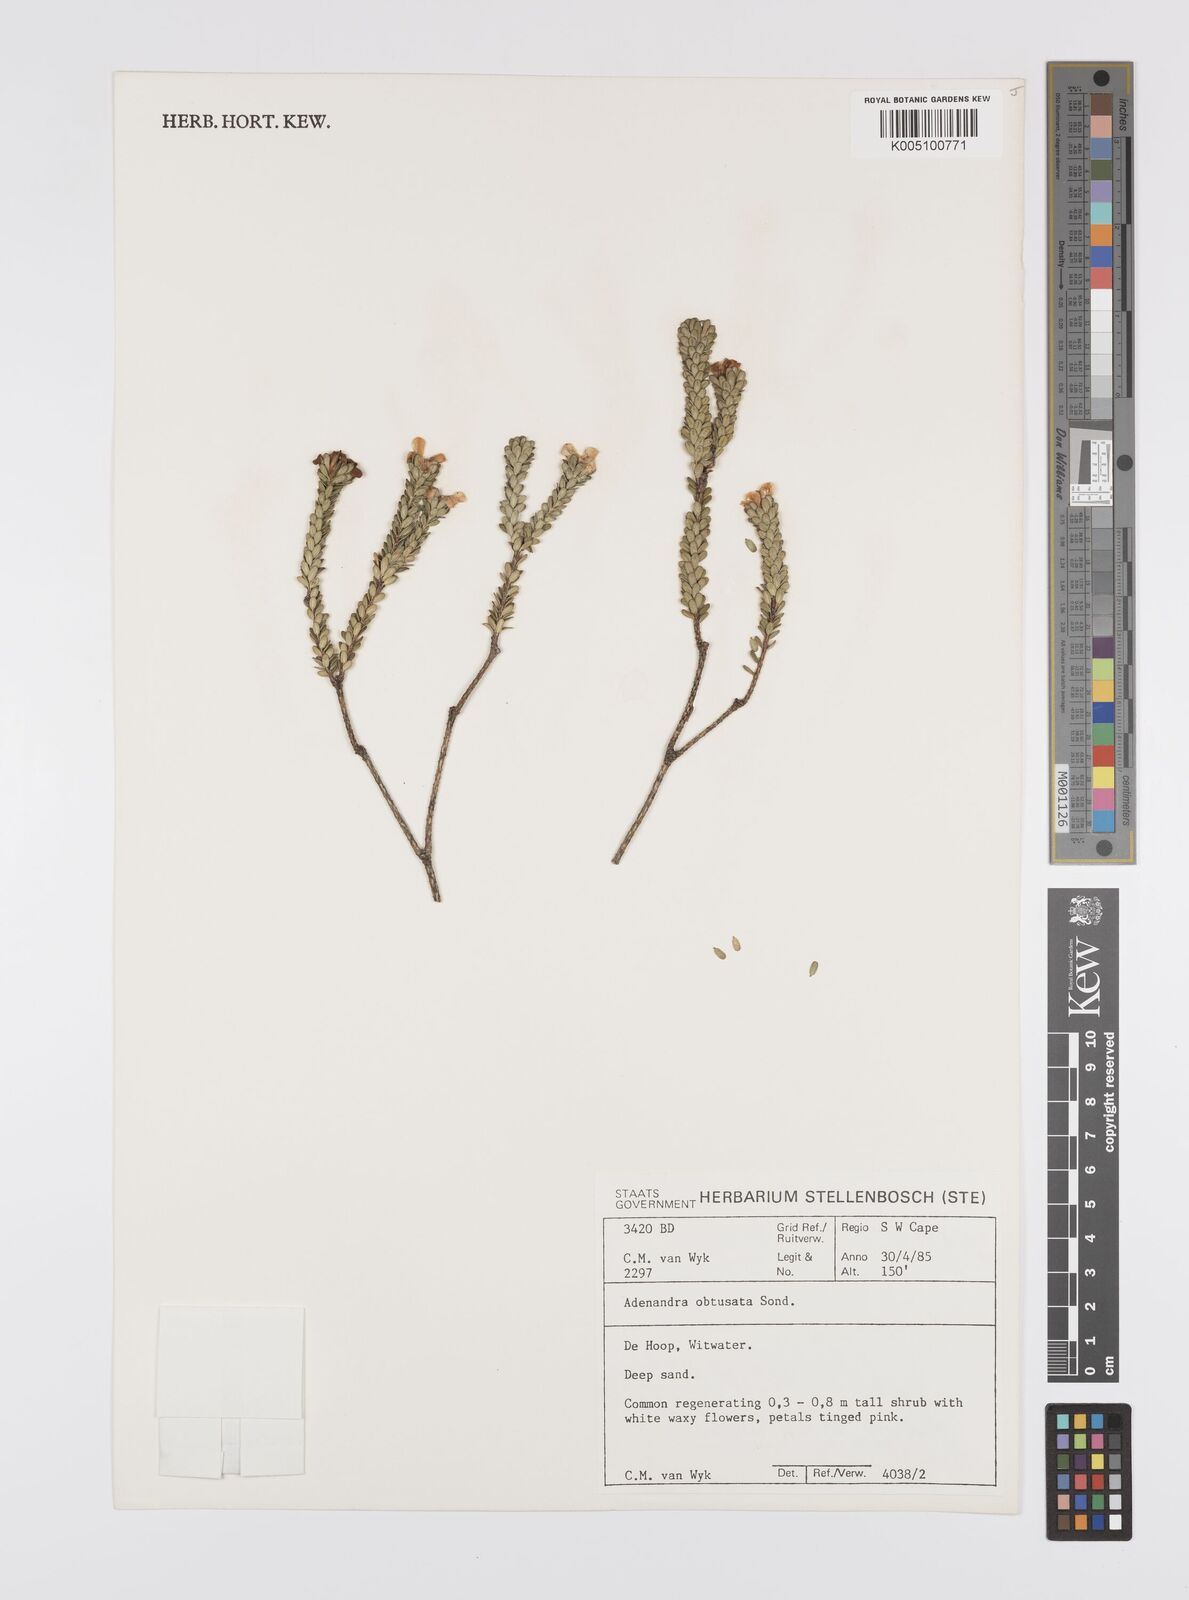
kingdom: Plantae
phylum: Tracheophyta
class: Magnoliopsida
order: Sapindales
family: Rutaceae
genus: Adenandra
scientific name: Adenandra obtusata
